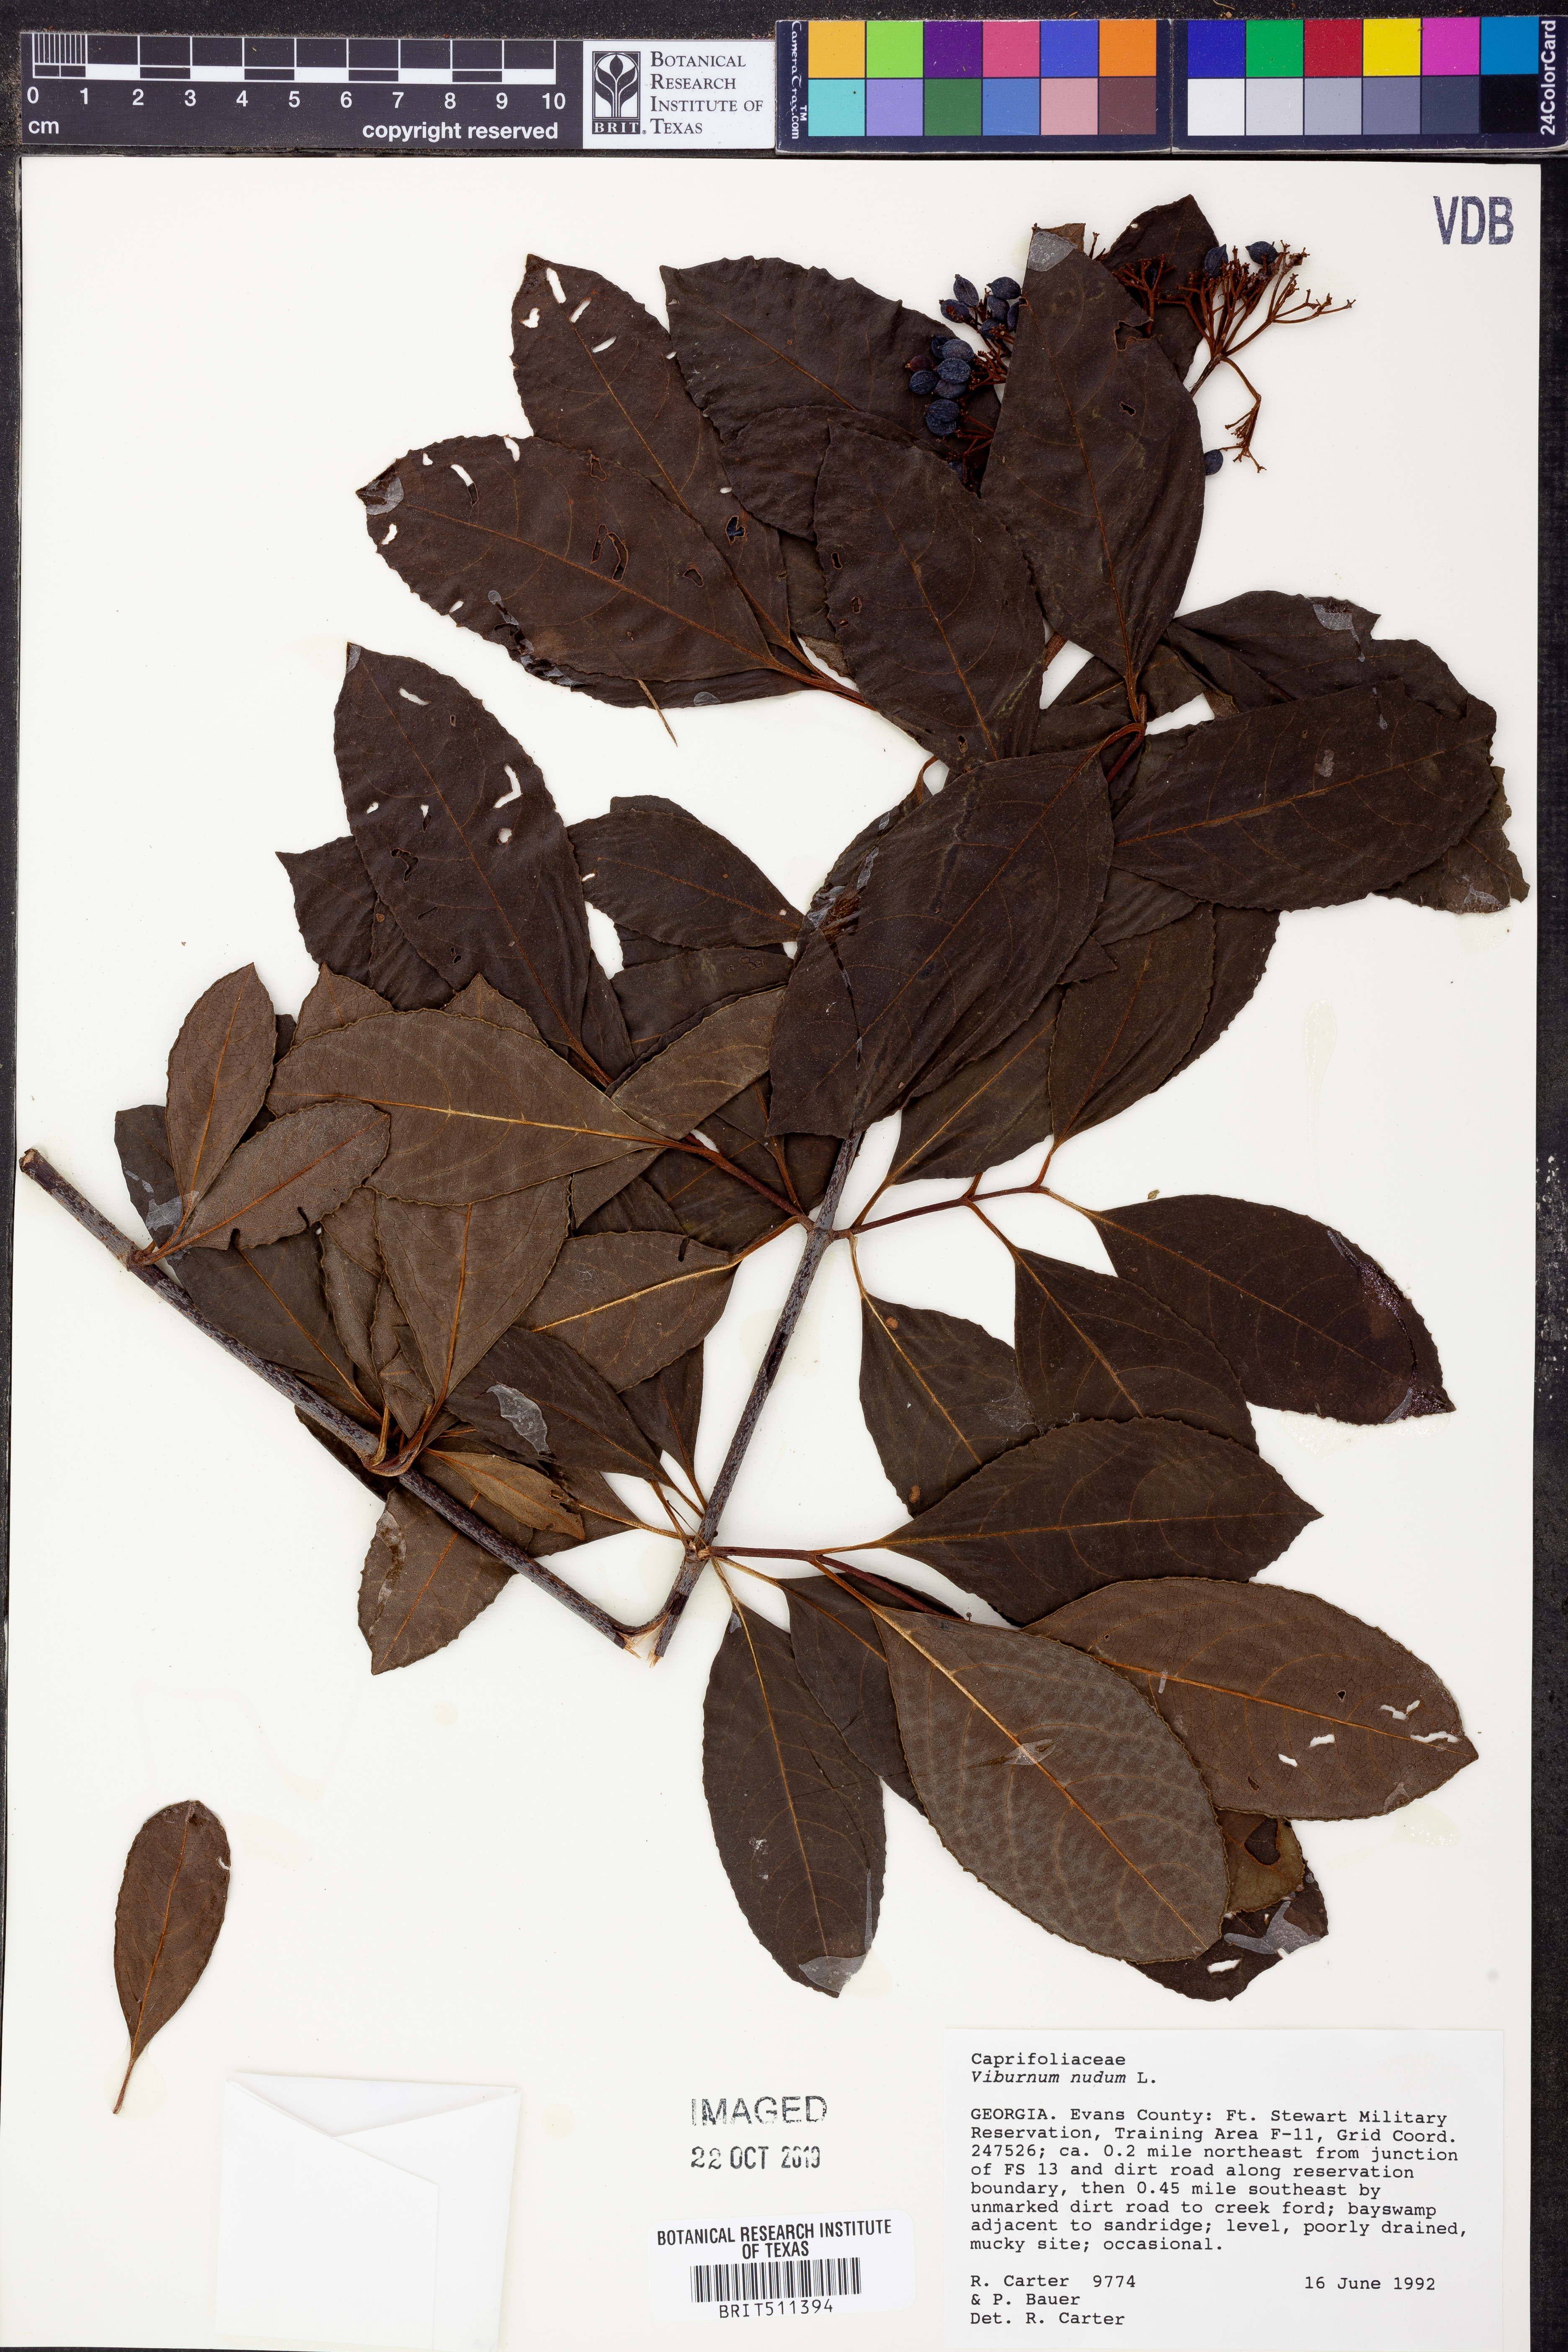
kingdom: Plantae
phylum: Tracheophyta
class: Magnoliopsida
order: Dipsacales
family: Viburnaceae
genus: Viburnum
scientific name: Viburnum nudum
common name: Possum haw
